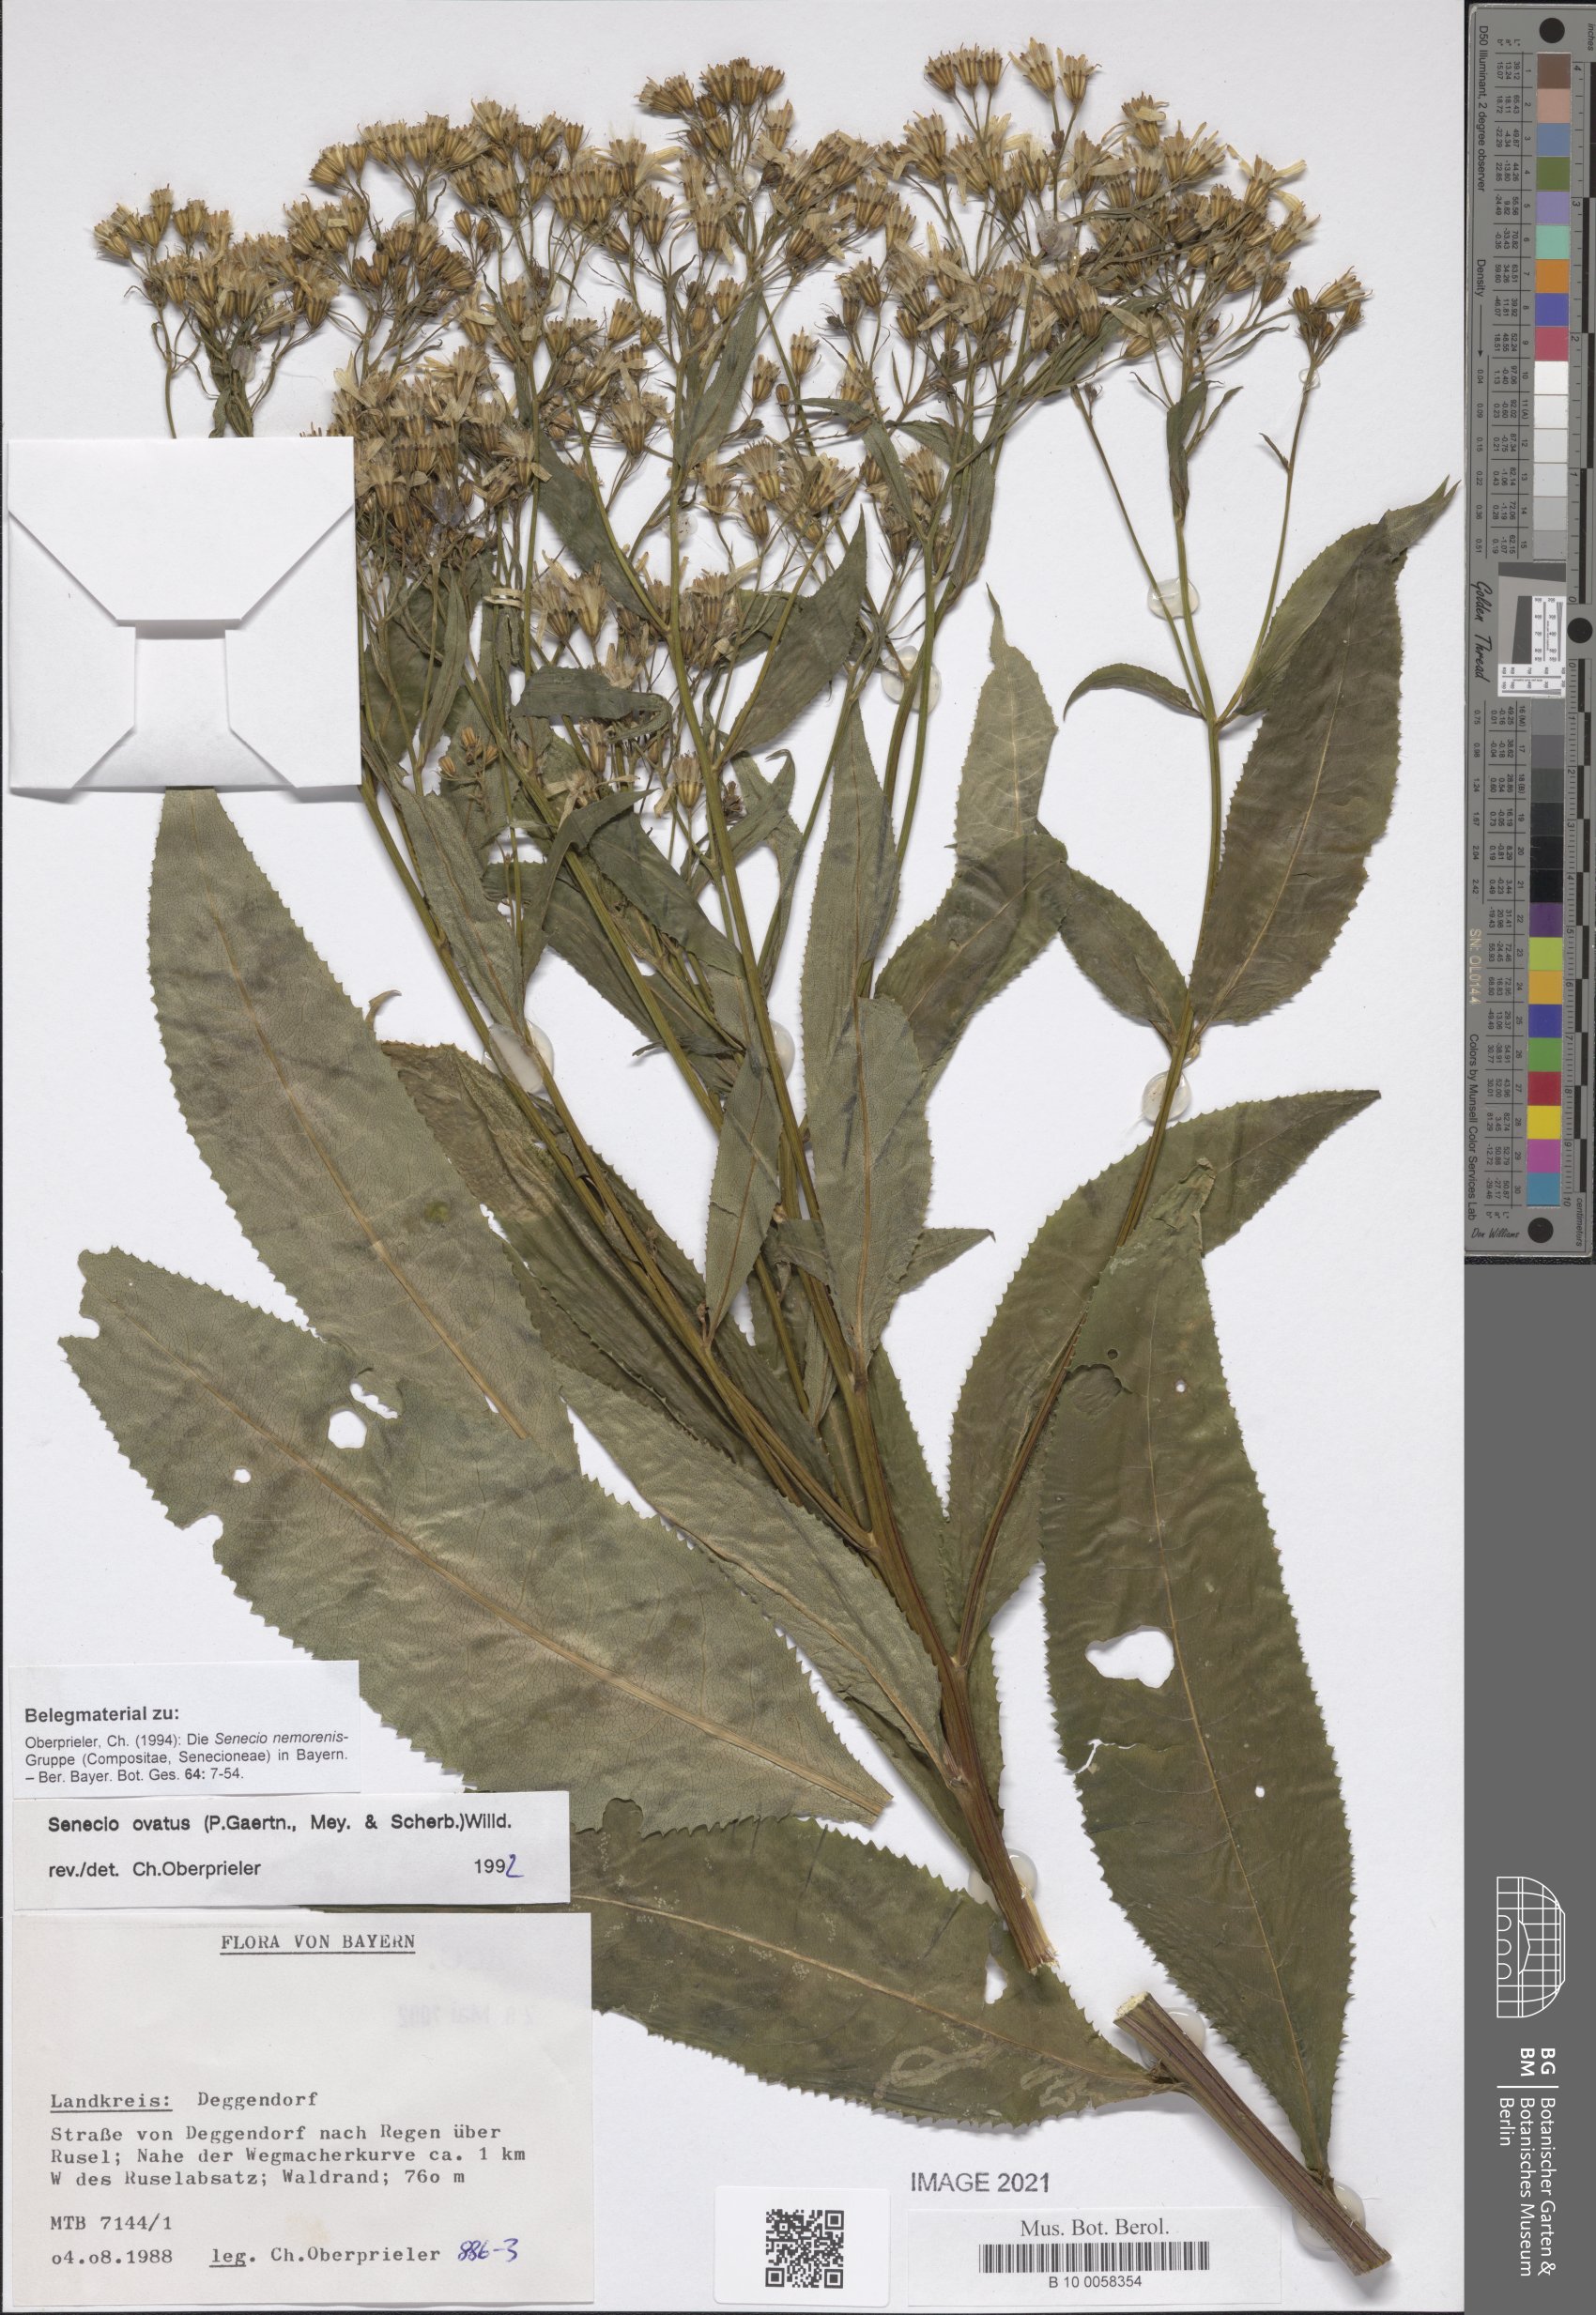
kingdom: Plantae
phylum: Tracheophyta
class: Magnoliopsida
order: Asterales
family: Asteraceae
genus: Senecio
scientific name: Senecio ovatus
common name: Wood ragwort
